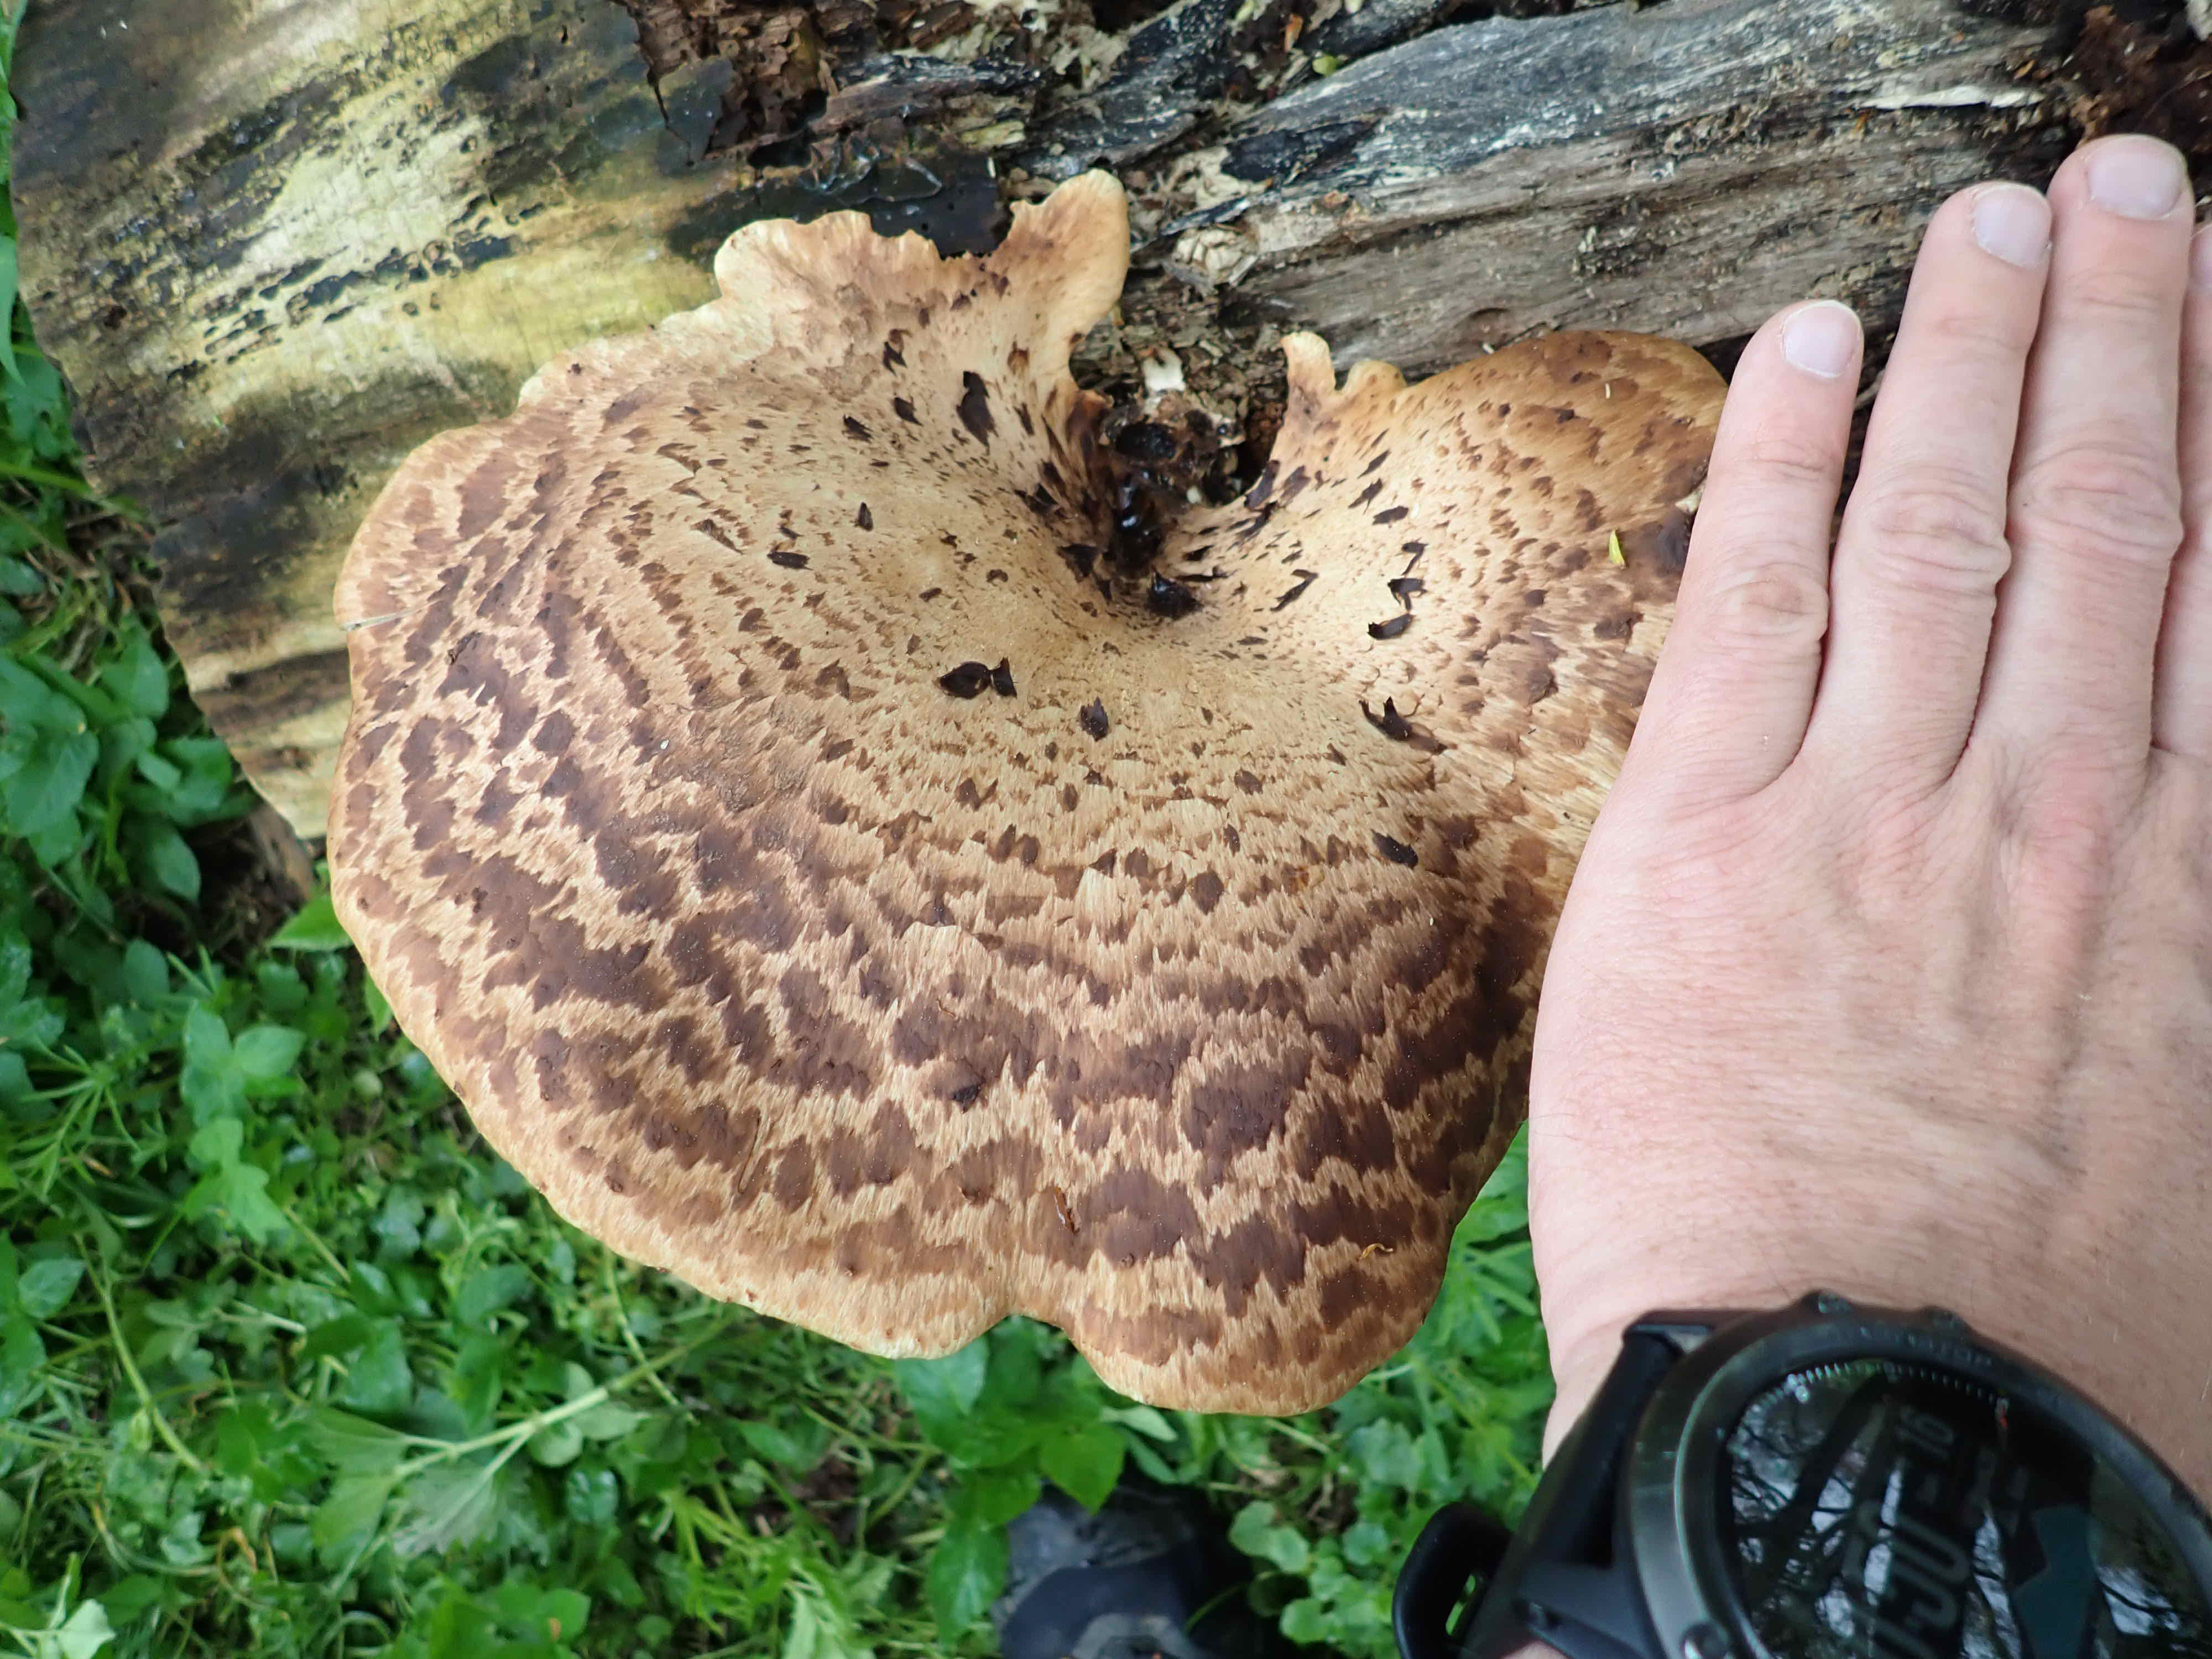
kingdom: Fungi
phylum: Basidiomycota
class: Agaricomycetes
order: Polyporales
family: Polyporaceae
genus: Cerioporus
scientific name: Cerioporus squamosus
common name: skællet stilkporesvamp
